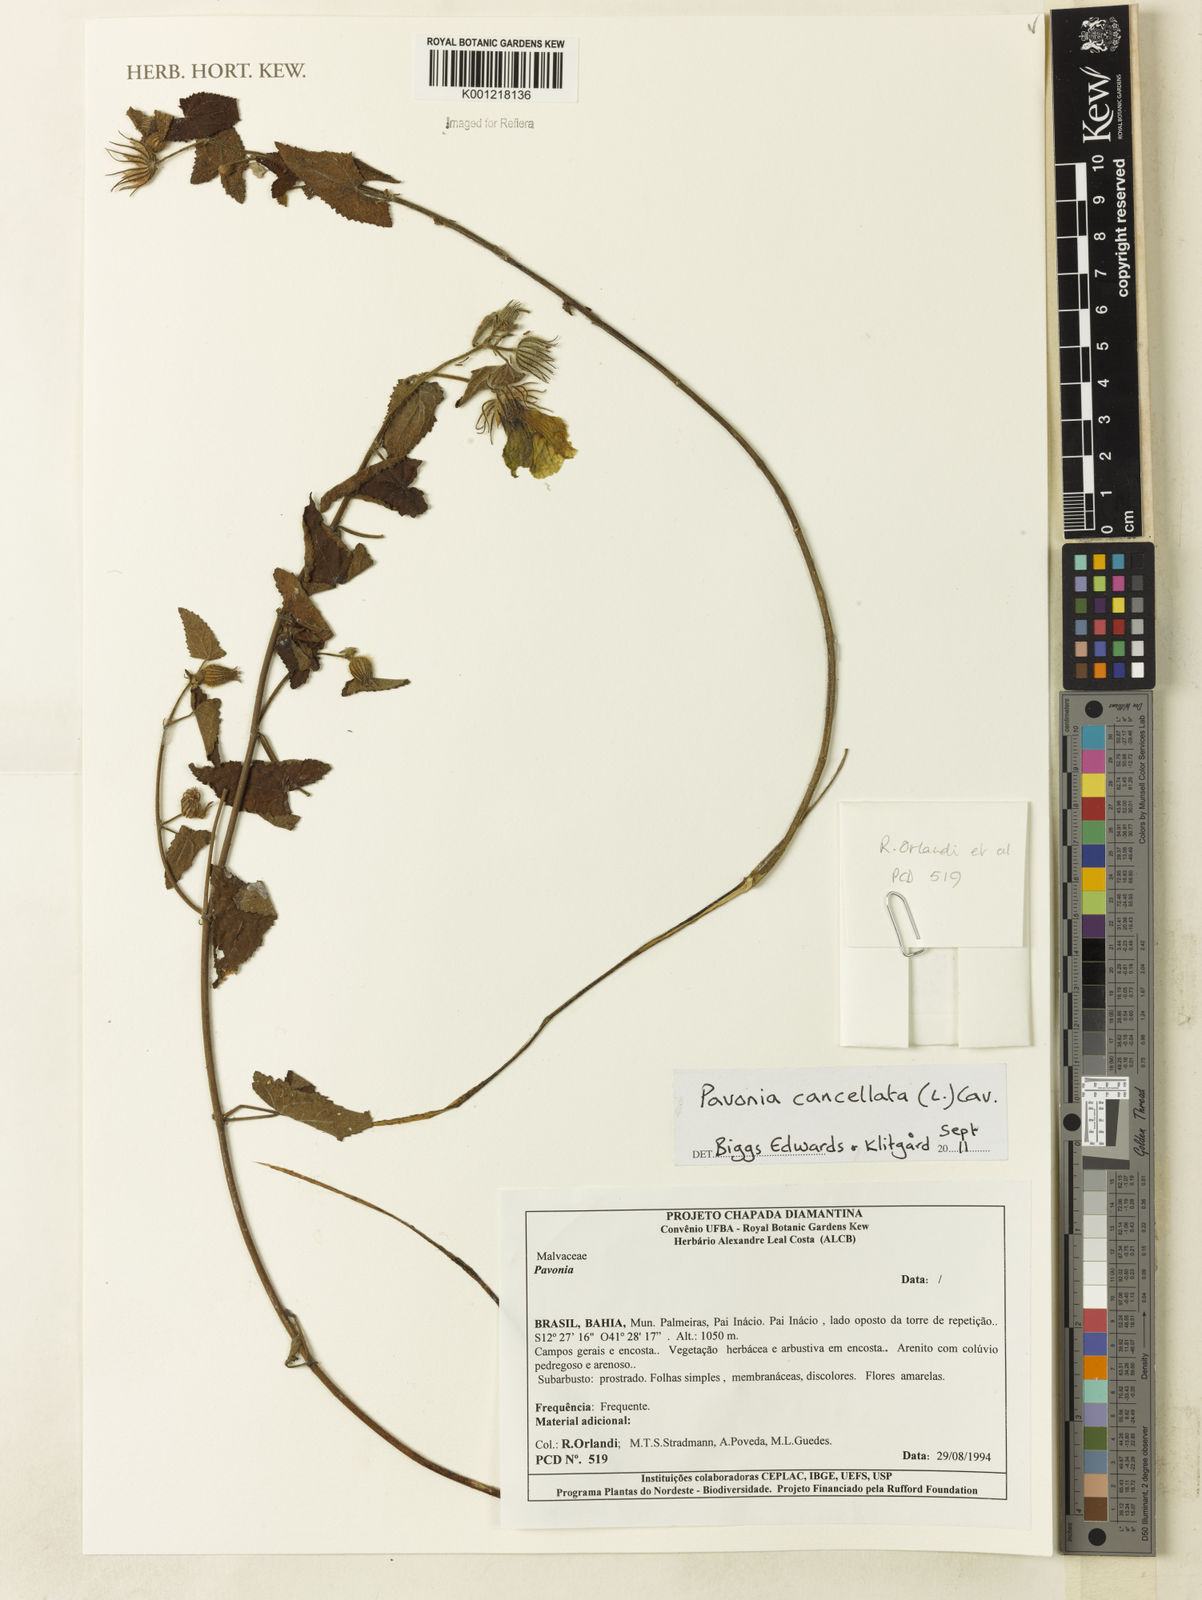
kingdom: Plantae
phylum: Tracheophyta
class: Magnoliopsida
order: Malvales
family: Malvaceae
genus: Pavonia
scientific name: Pavonia cancellata
